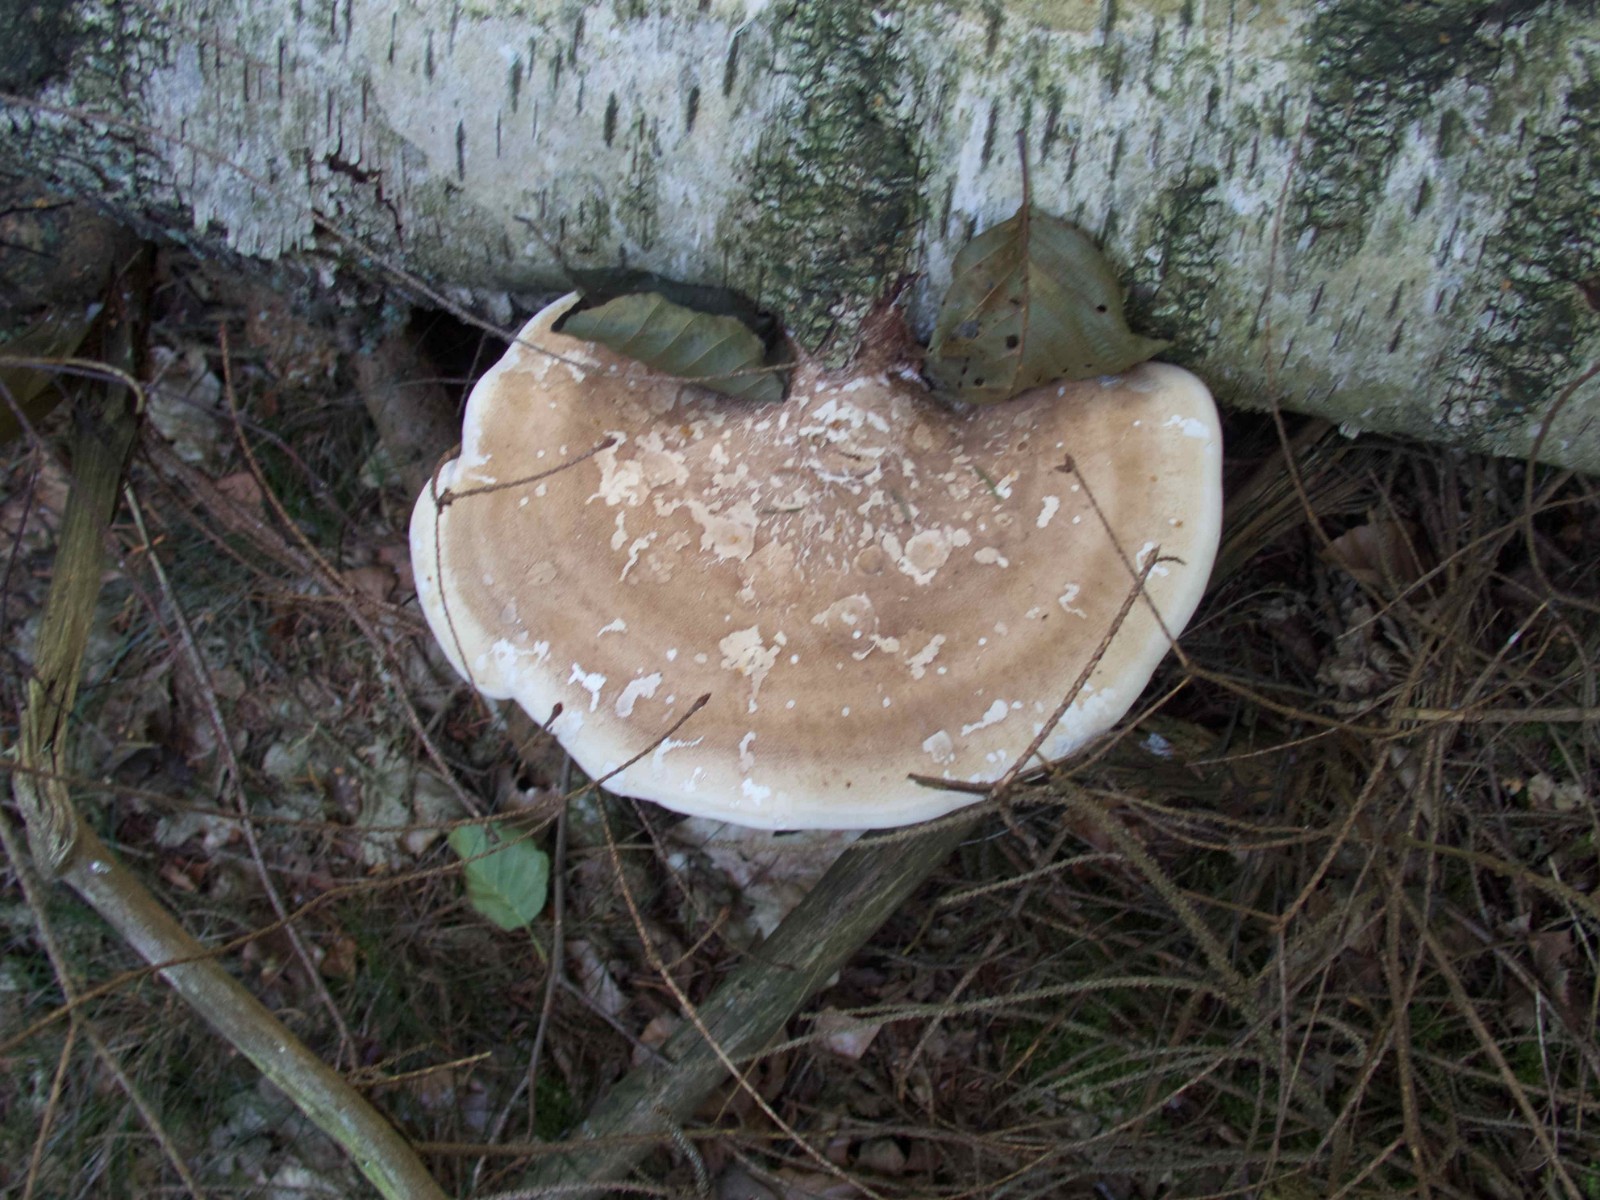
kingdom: Fungi
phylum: Basidiomycota
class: Agaricomycetes
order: Polyporales
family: Fomitopsidaceae
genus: Fomitopsis
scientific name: Fomitopsis betulina
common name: birkeporesvamp
